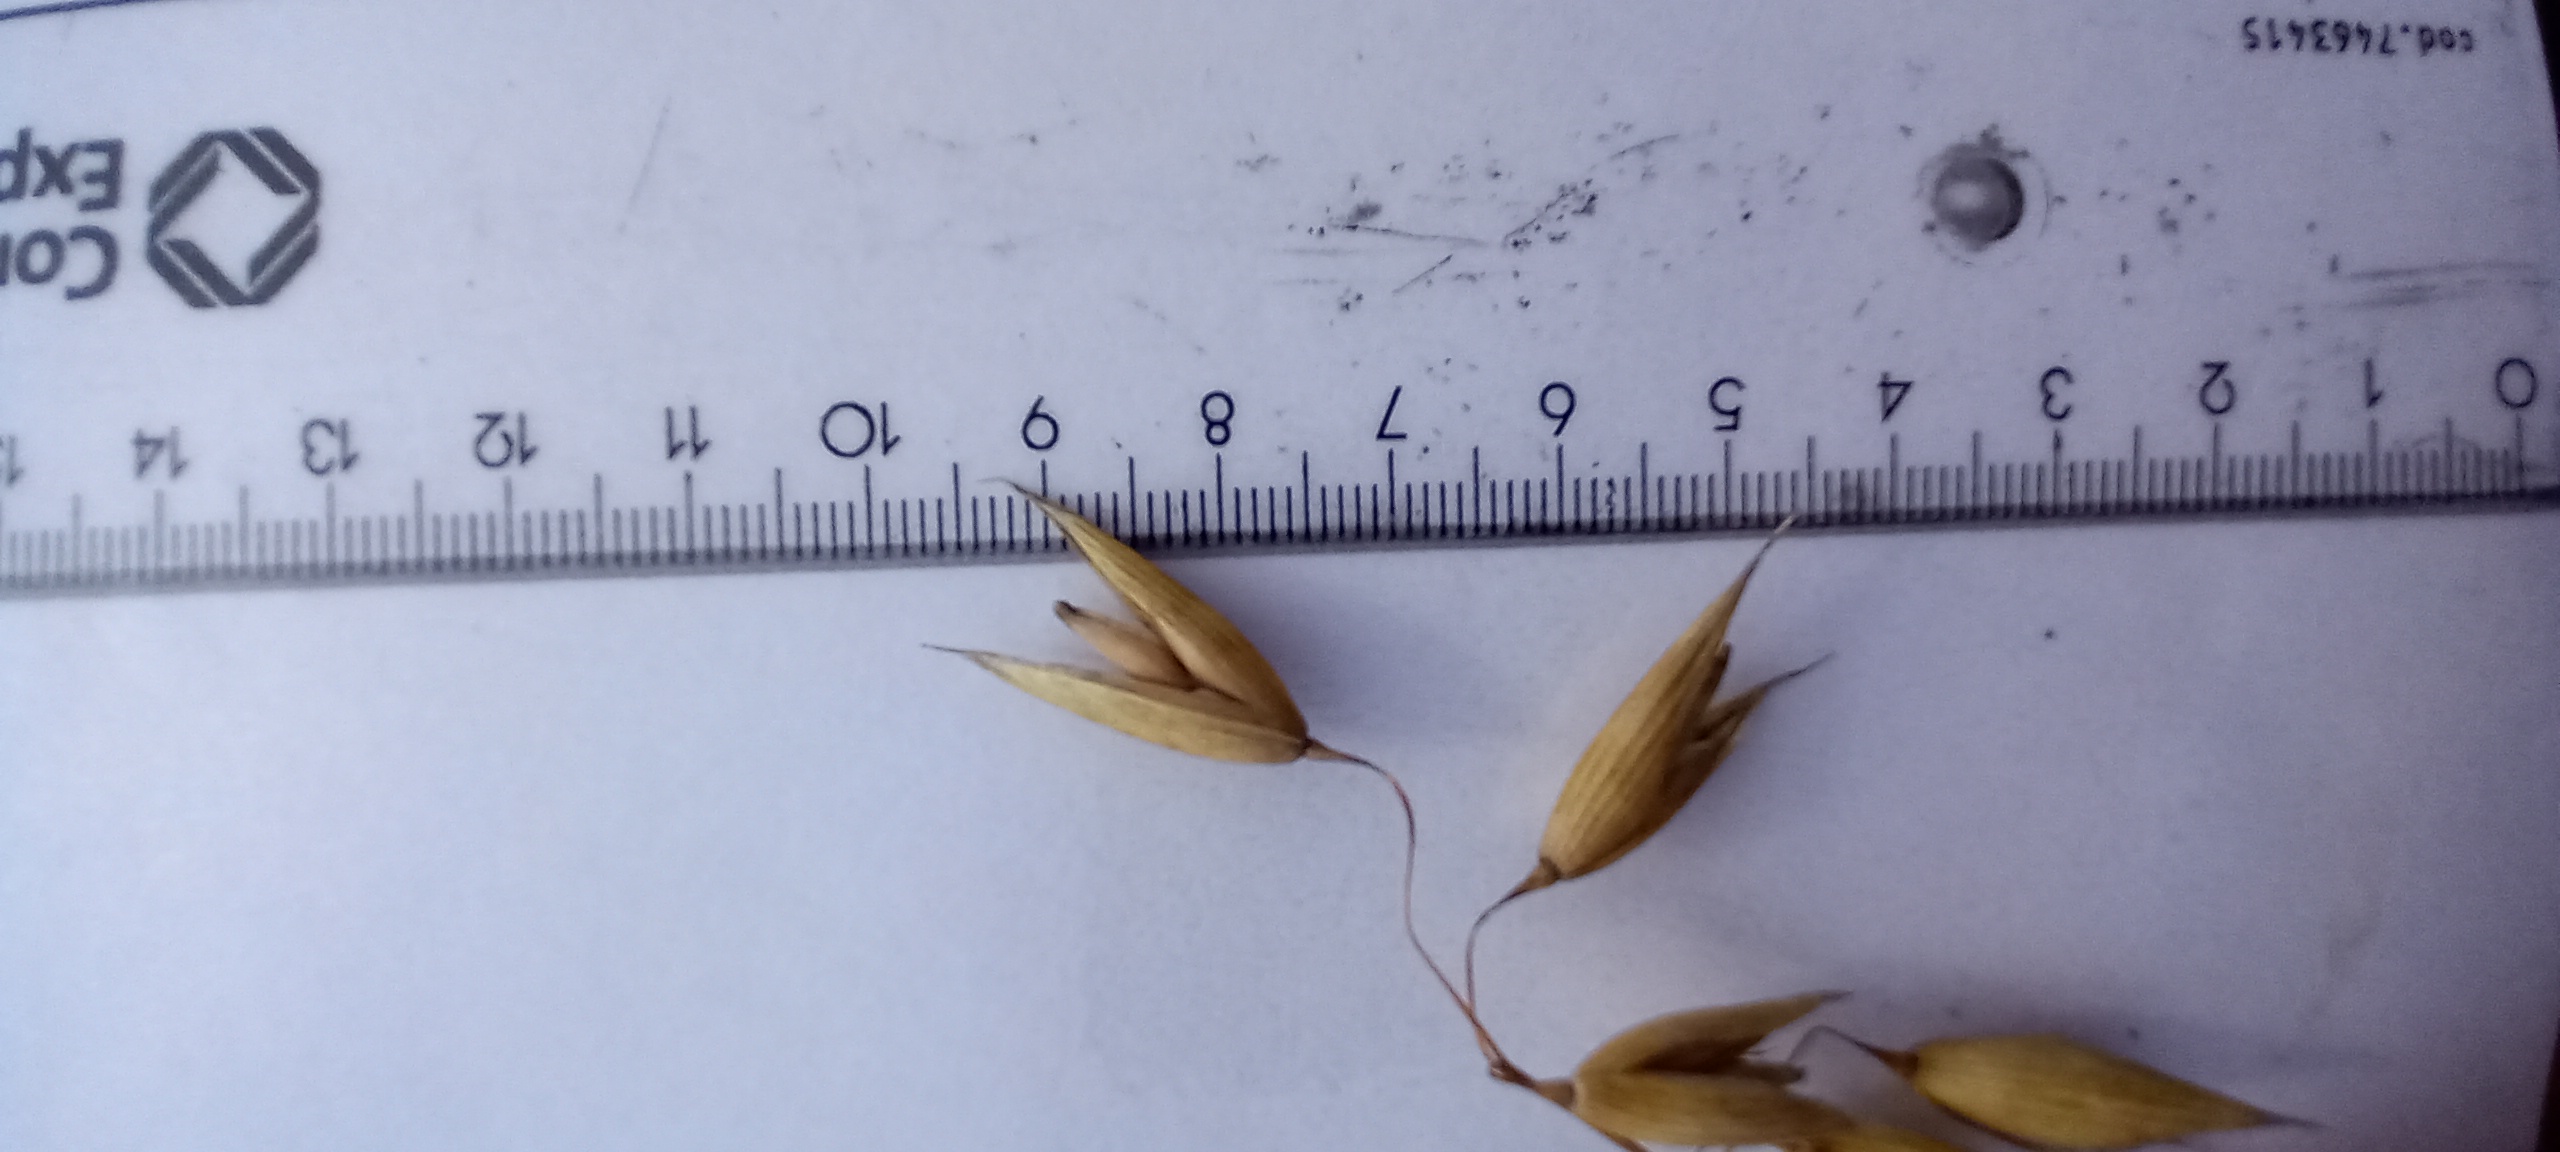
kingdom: Plantae
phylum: Tracheophyta
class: Liliopsida
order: Poales
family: Poaceae
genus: Avena
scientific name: Avena sativa
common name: Oat
